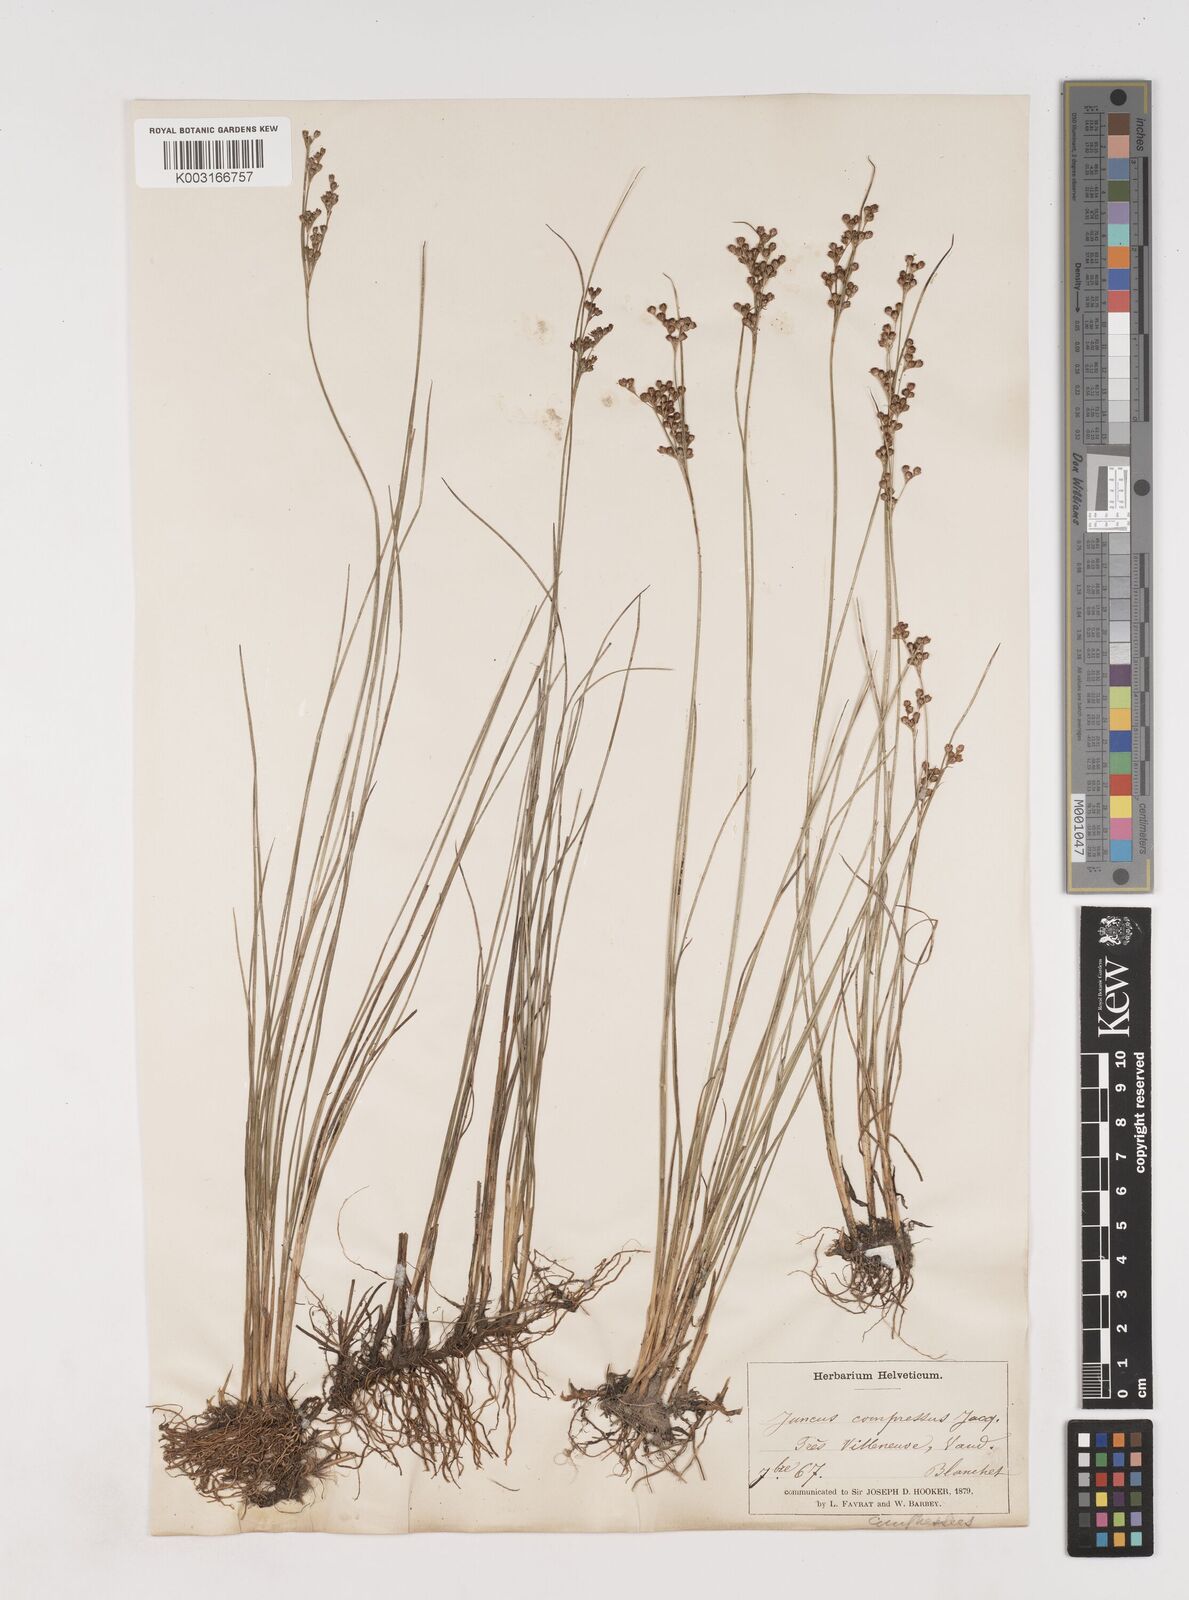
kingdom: Plantae
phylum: Tracheophyta
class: Liliopsida
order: Poales
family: Juncaceae
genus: Juncus
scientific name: Juncus
